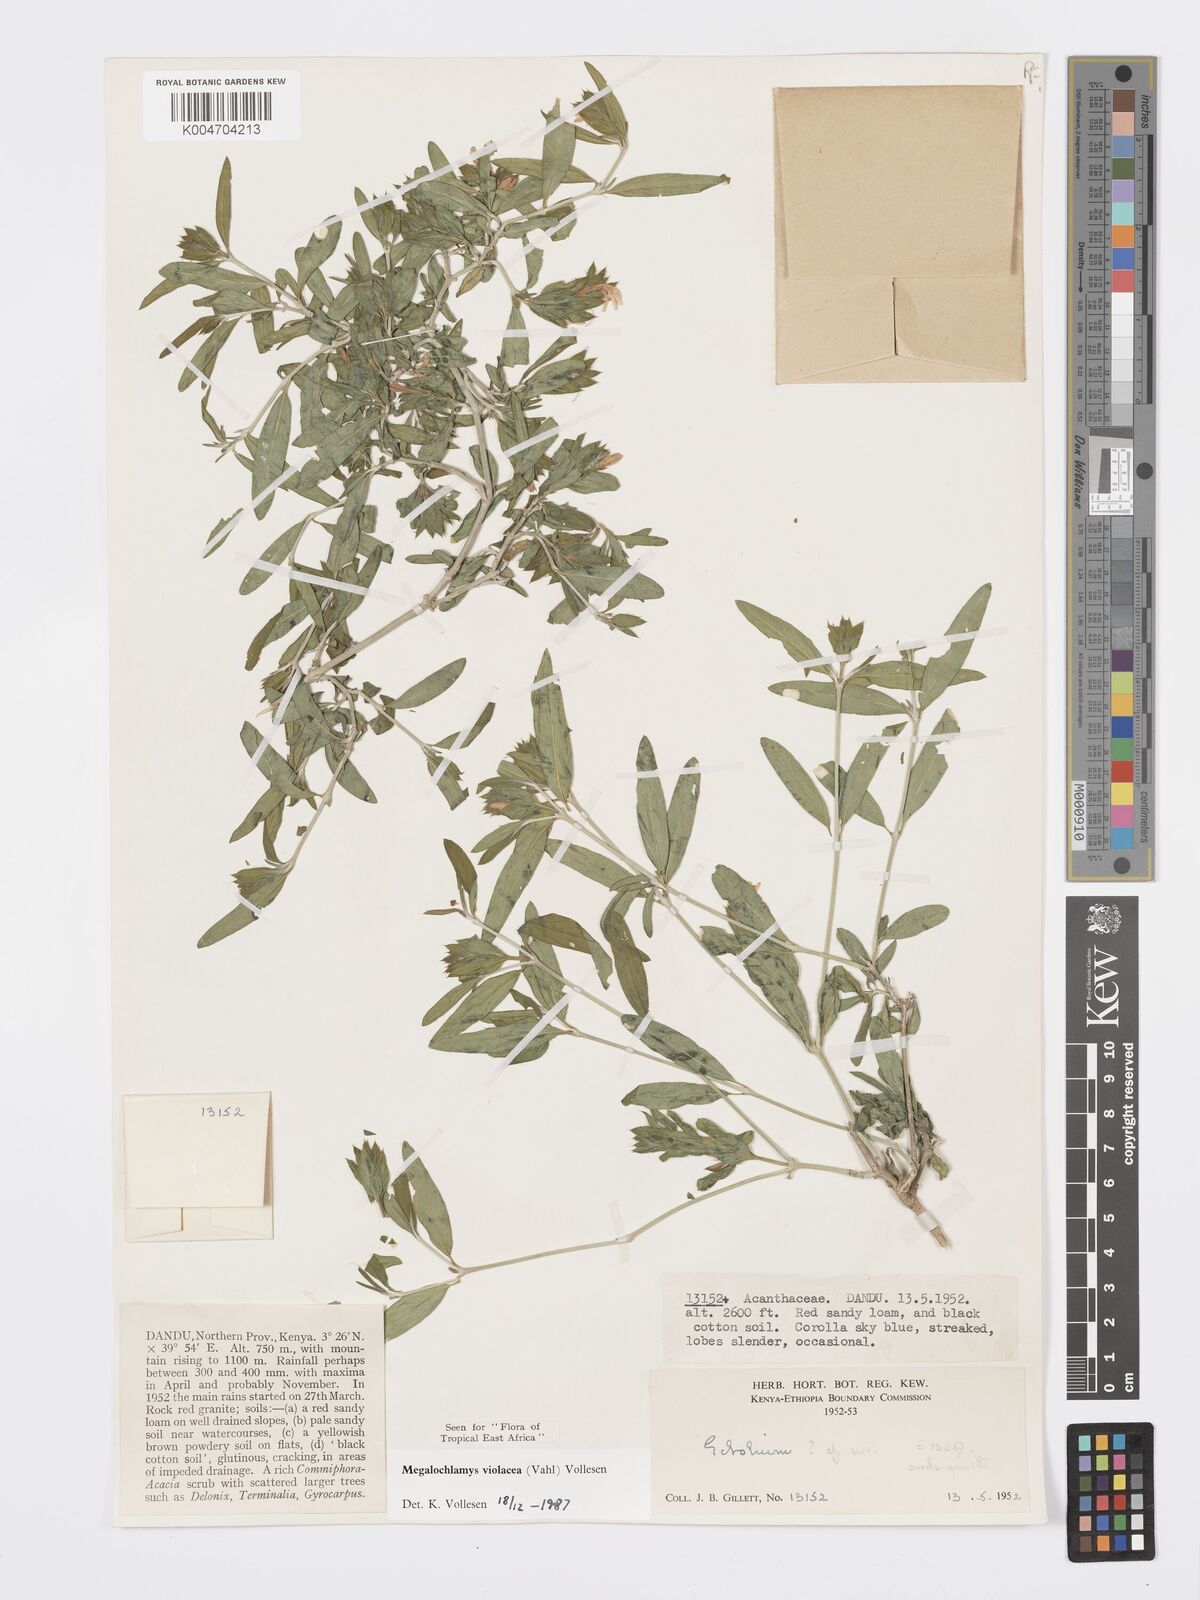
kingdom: Plantae
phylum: Tracheophyta
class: Magnoliopsida
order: Lamiales
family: Acanthaceae
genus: Megalochlamys
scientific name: Megalochlamys violacea
